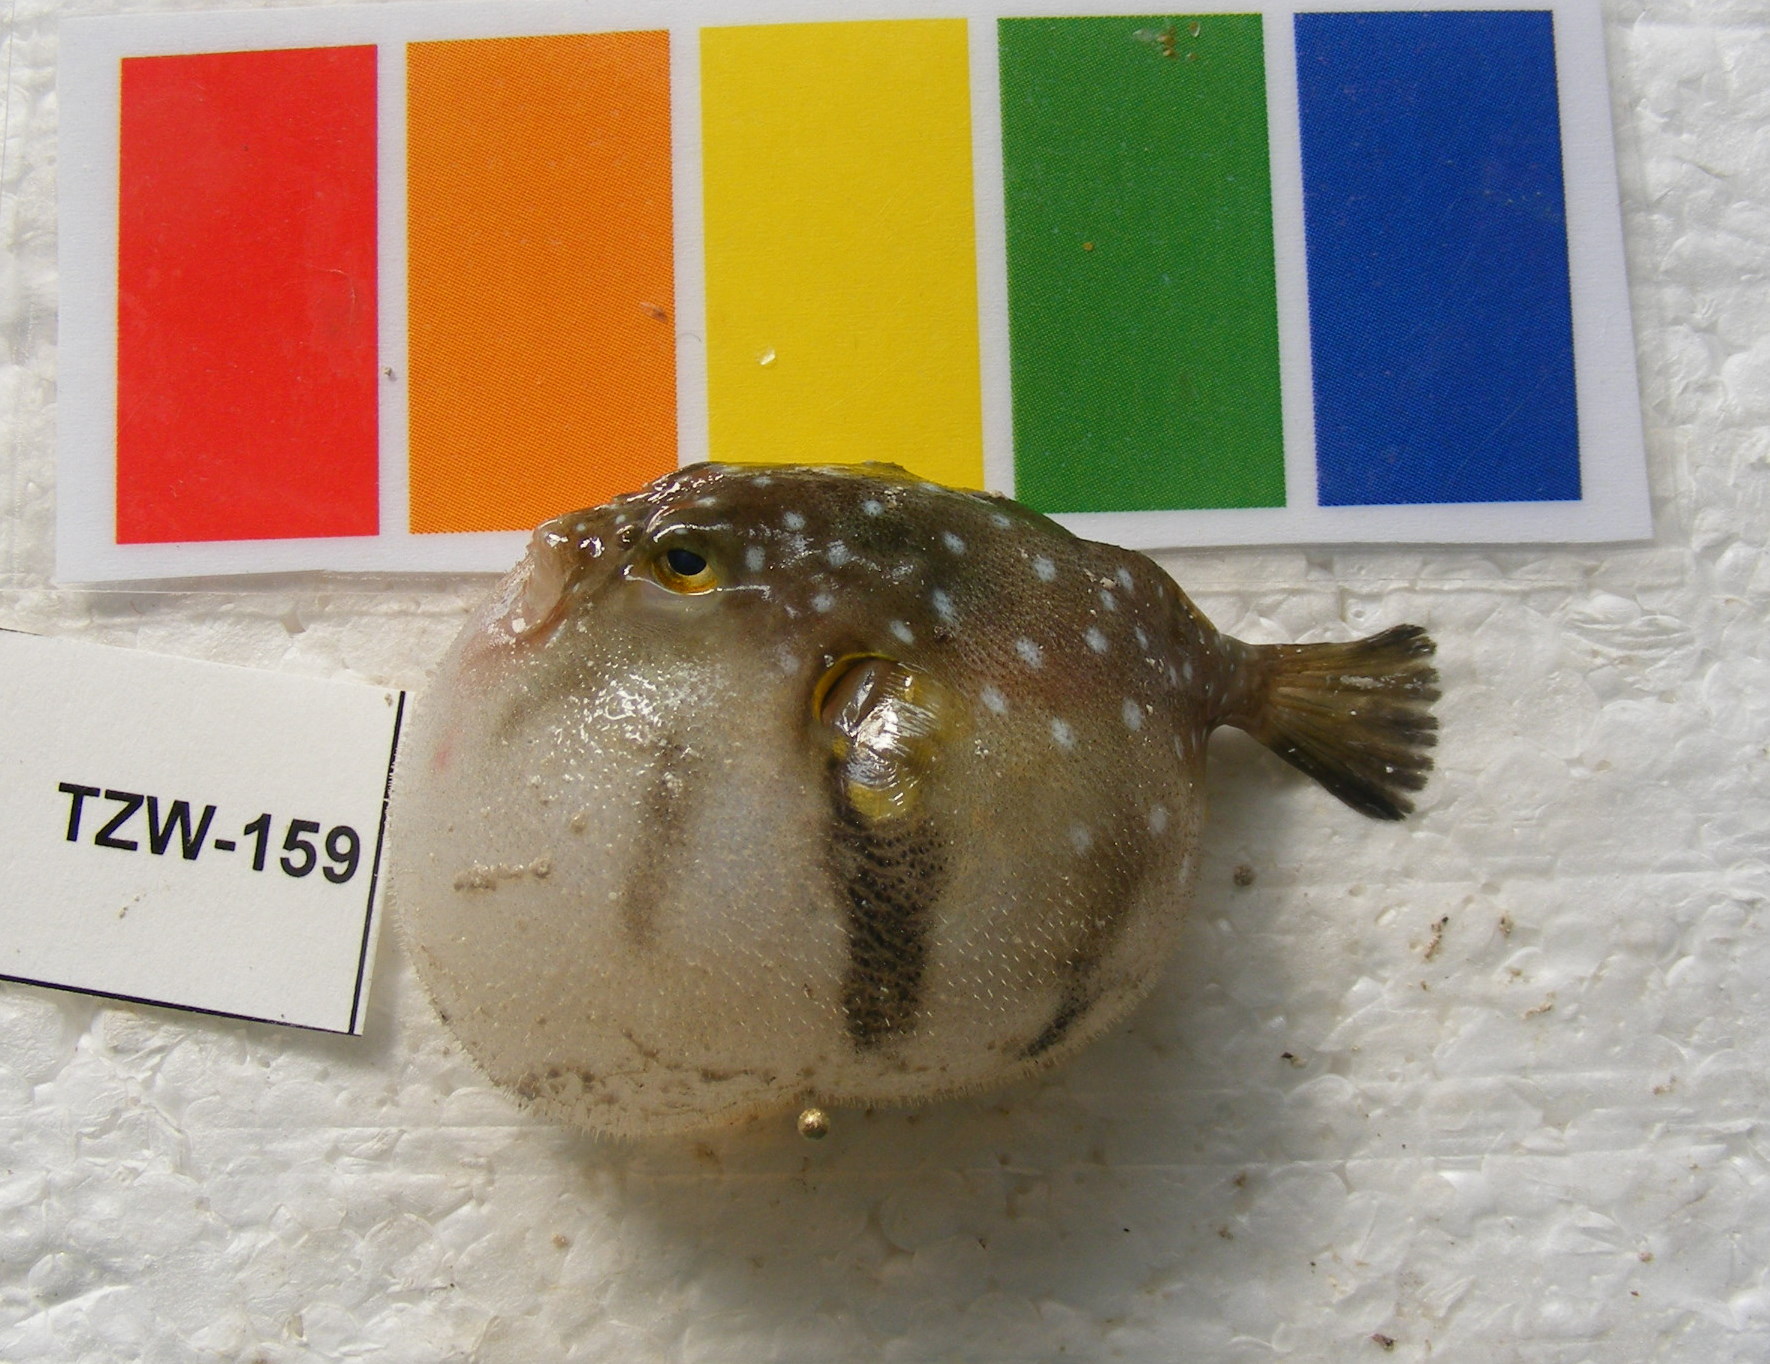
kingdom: Animalia
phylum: Chordata
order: Tetraodontiformes
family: Tetraodontidae
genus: Arothron
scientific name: Arothron hispidus
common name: Stripebelly puffer
